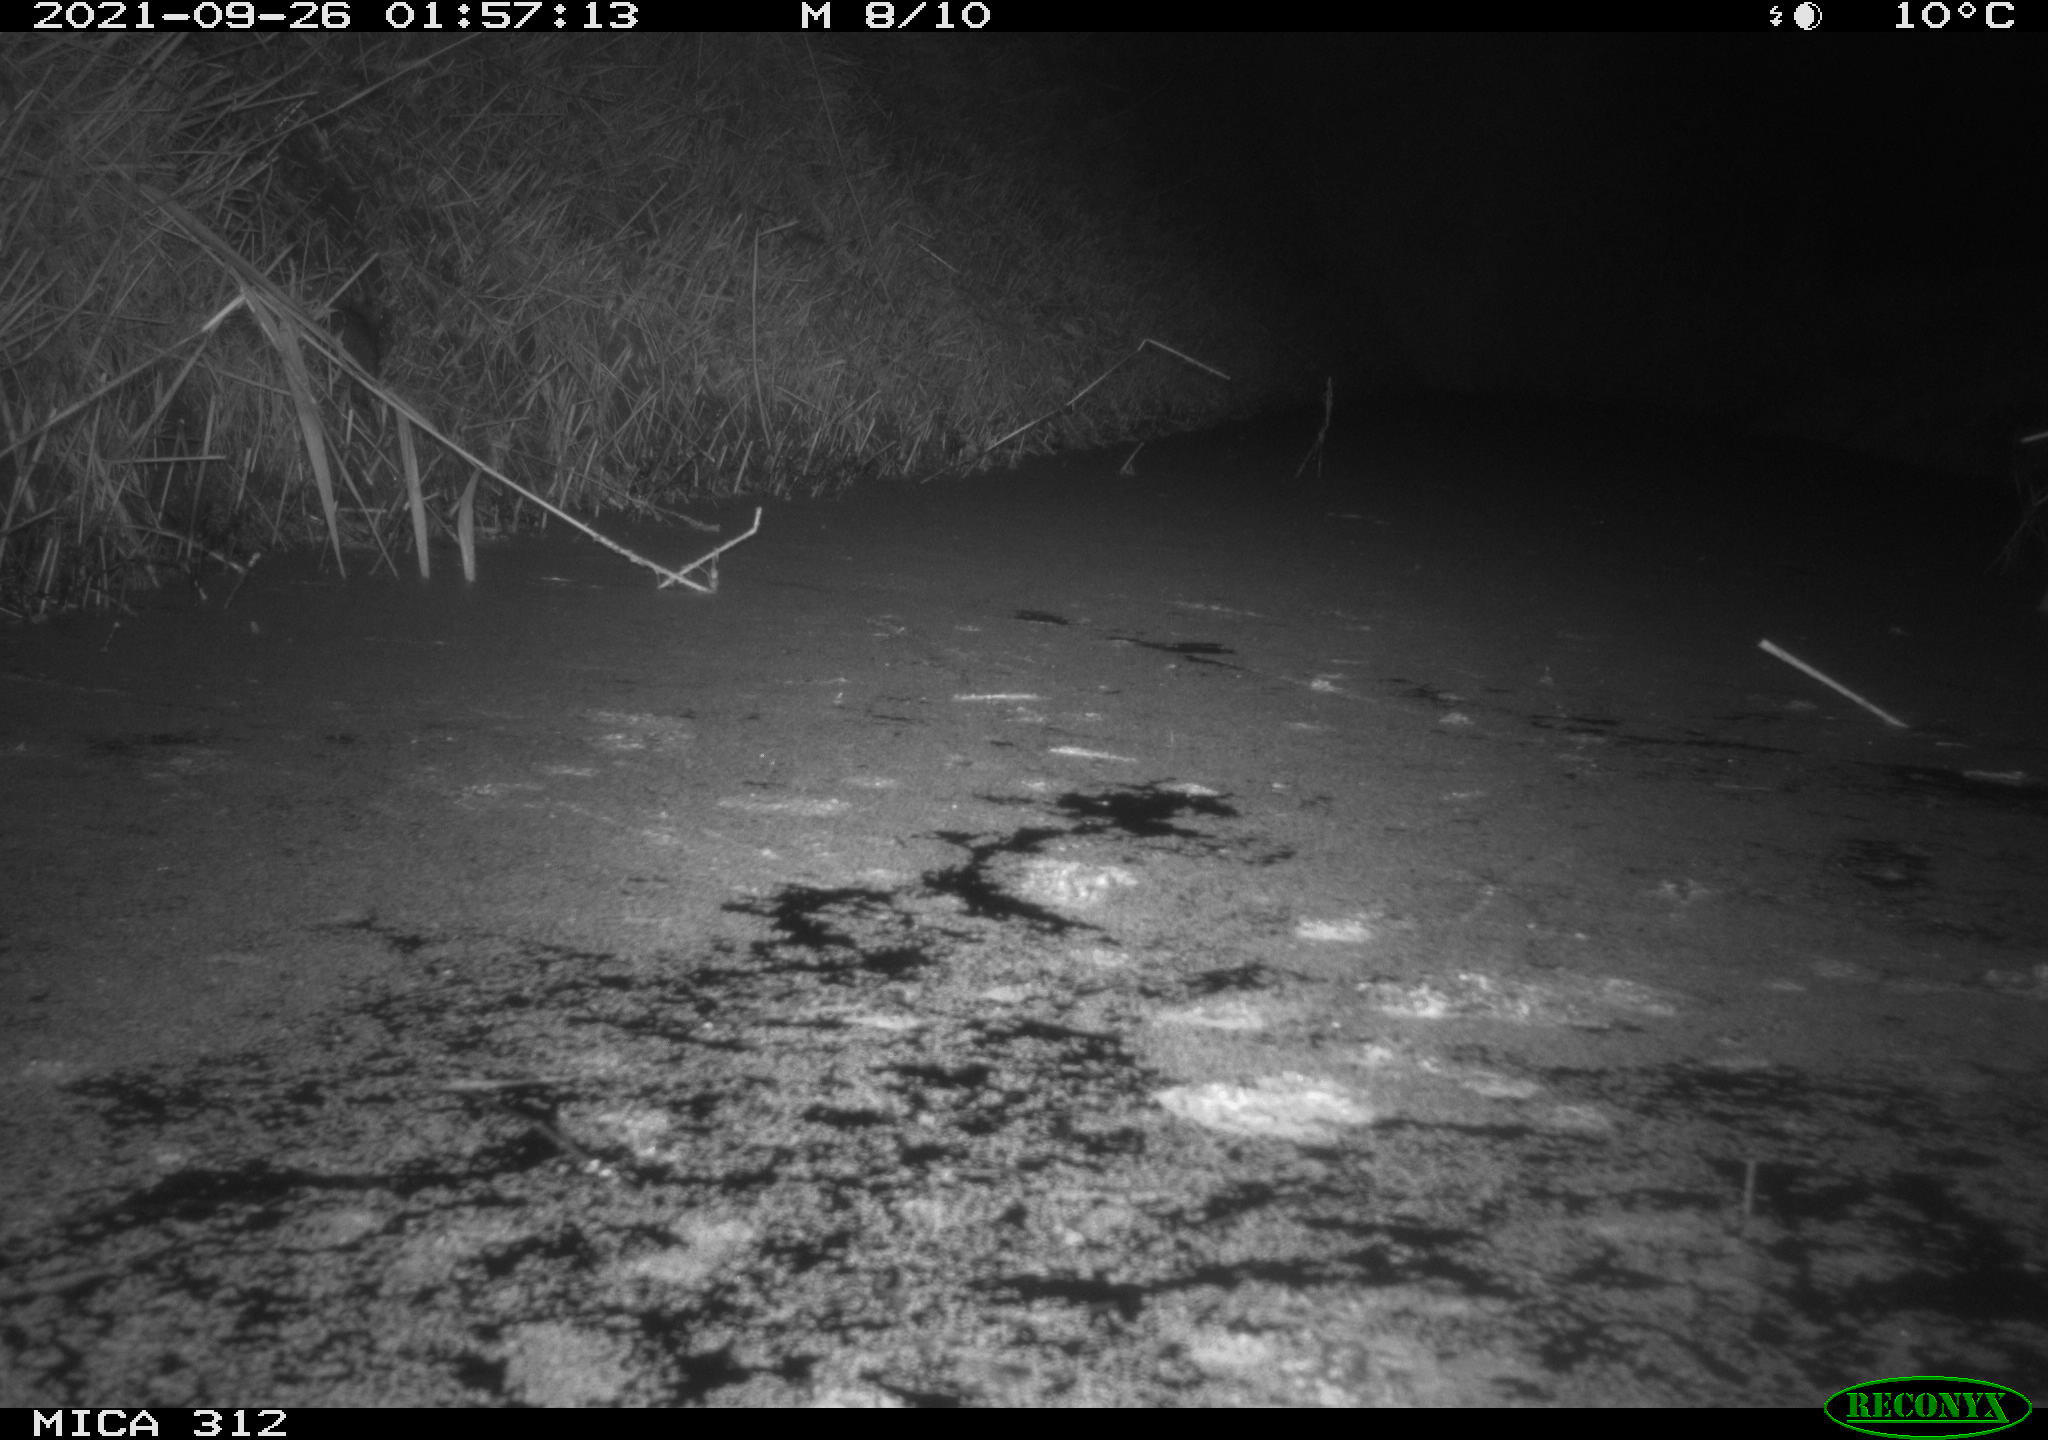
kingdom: Animalia
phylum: Chordata
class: Mammalia
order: Rodentia
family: Muridae
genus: Rattus
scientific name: Rattus norvegicus
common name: Brown rat
